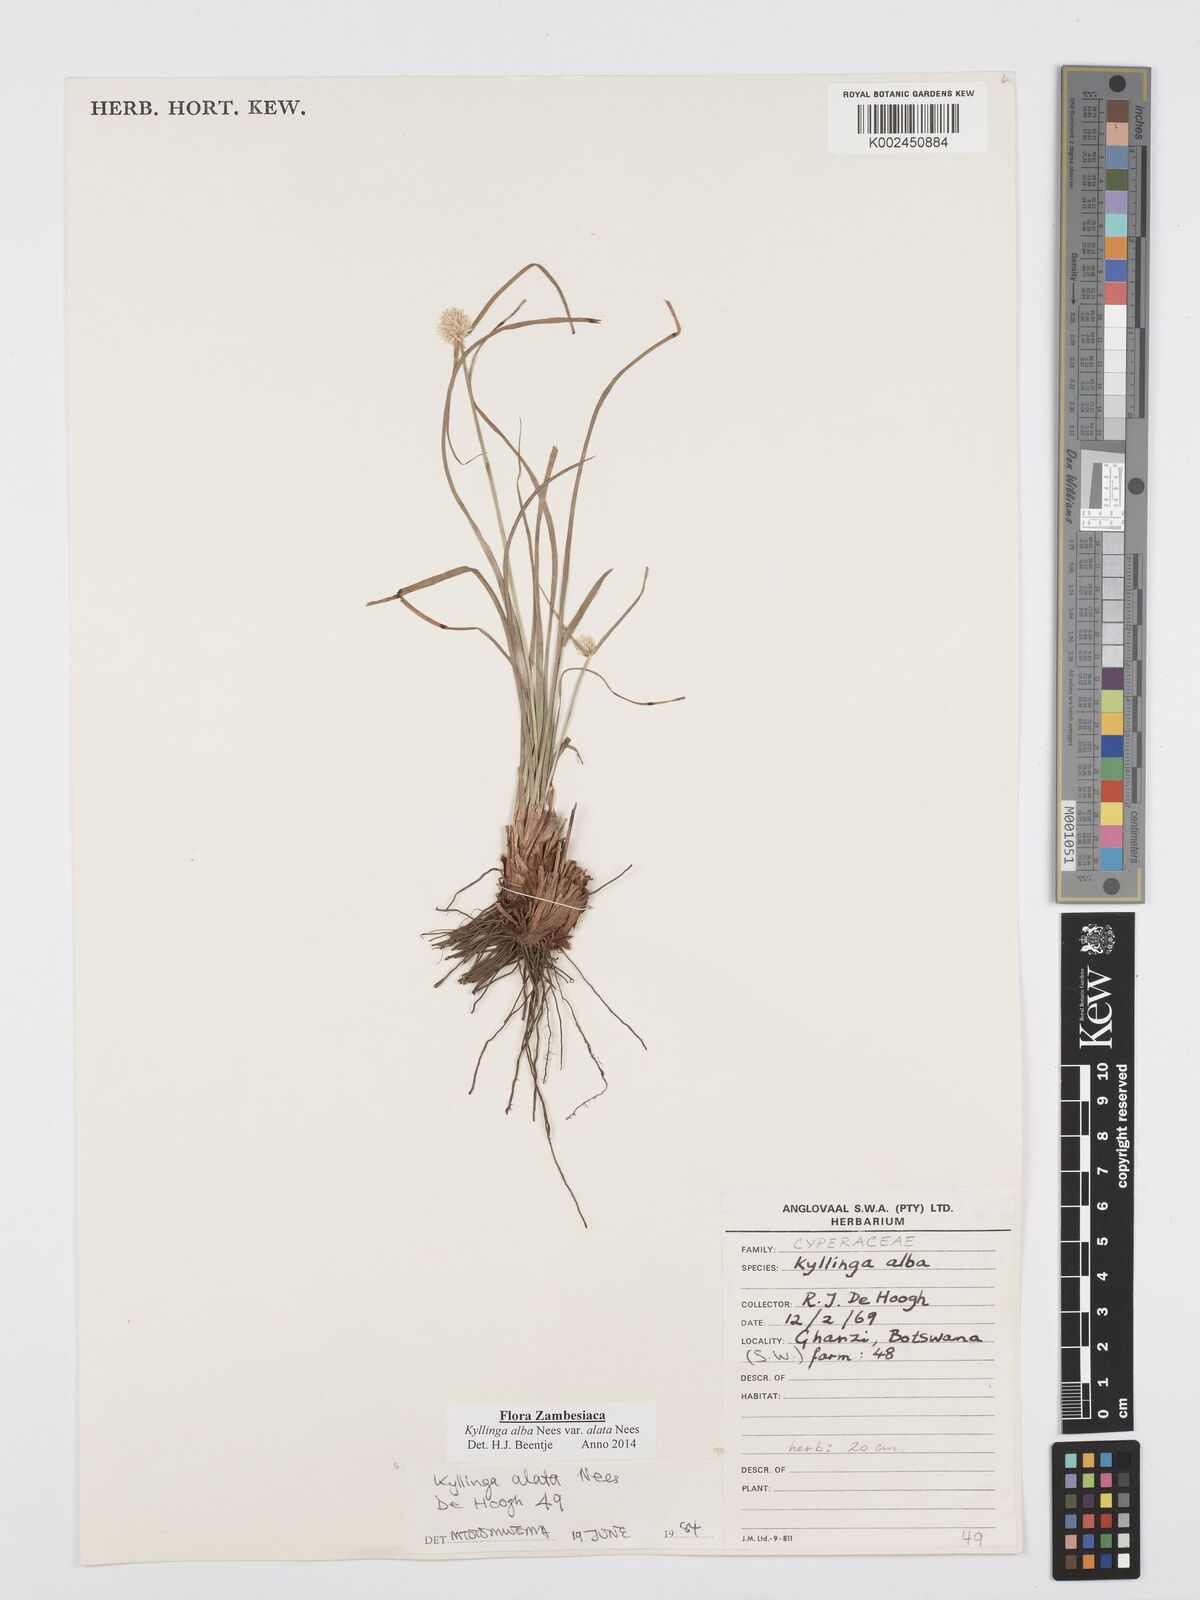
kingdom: Plantae
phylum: Tracheophyta
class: Liliopsida
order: Poales
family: Cyperaceae
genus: Cyperus
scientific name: Cyperus alatus
